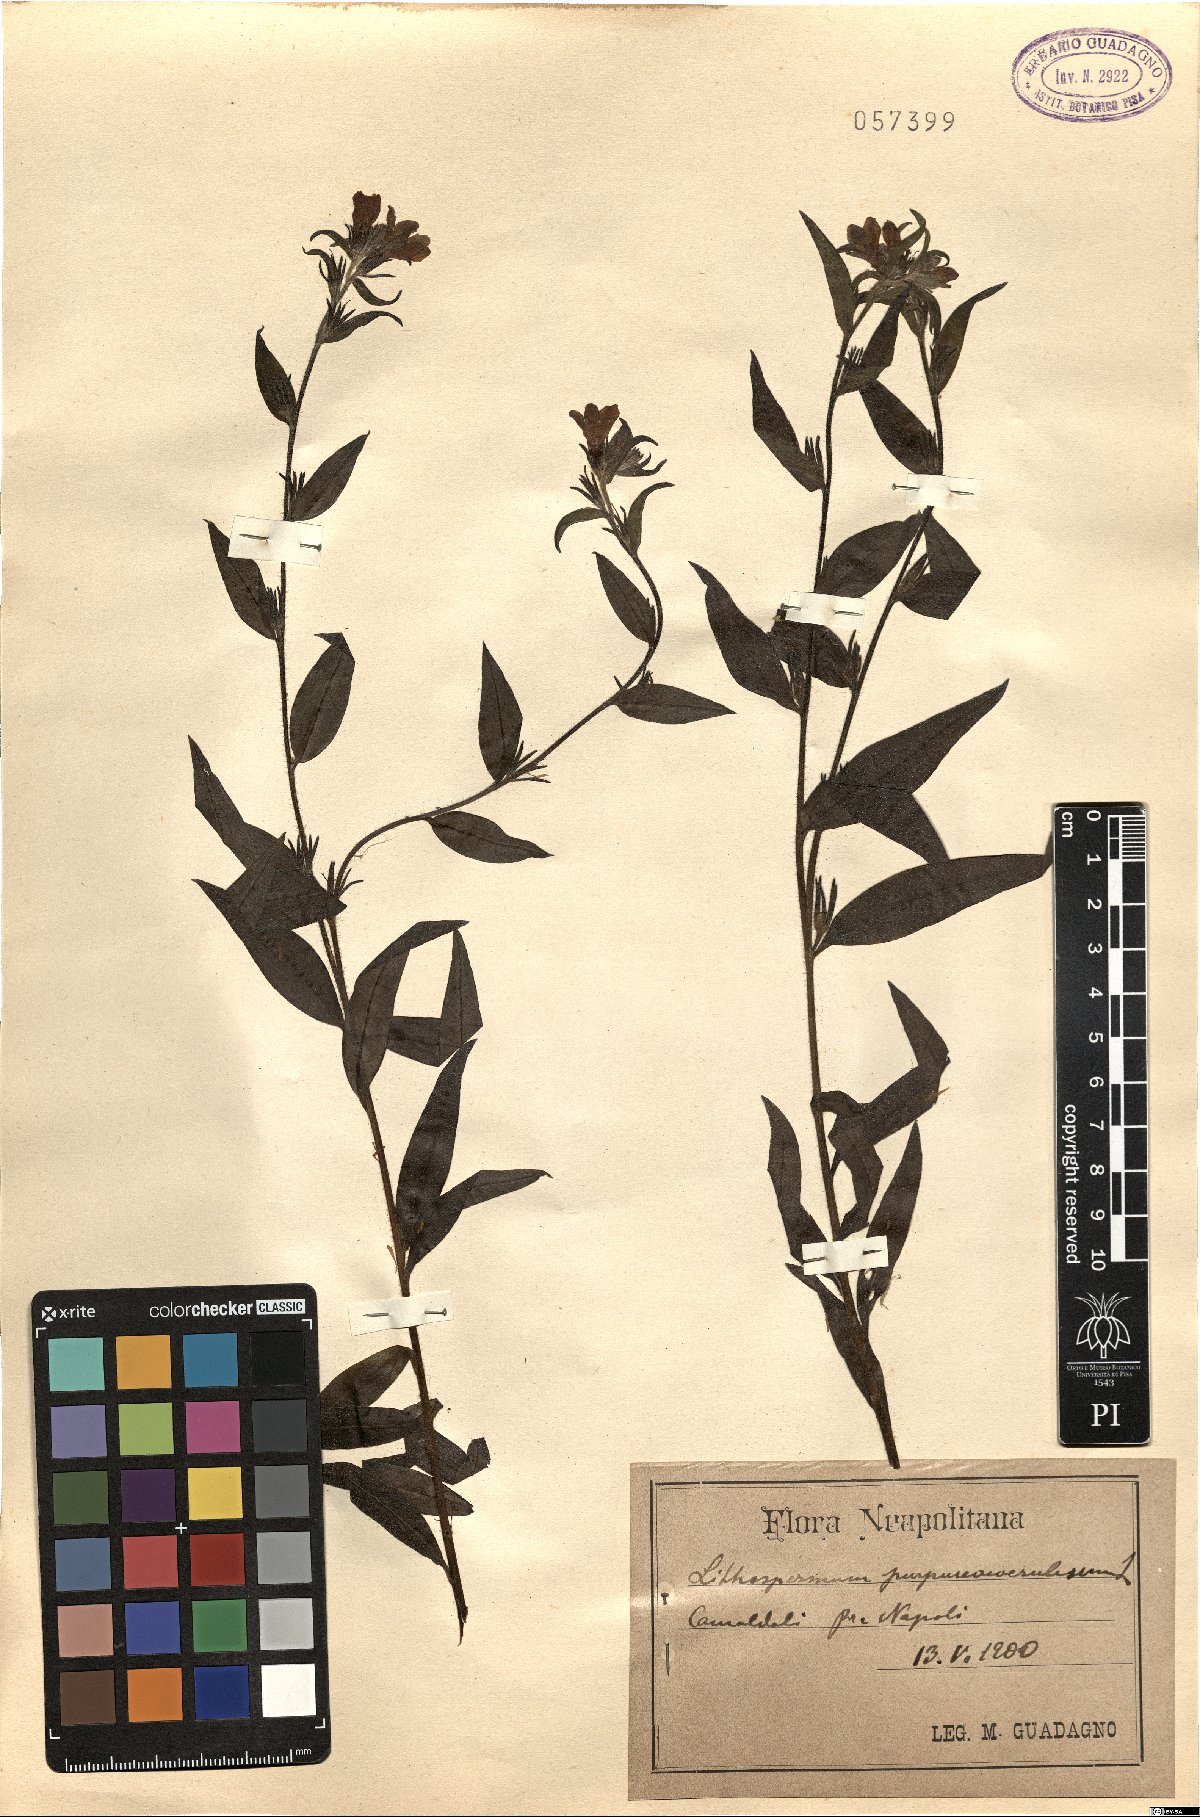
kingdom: Plantae
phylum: Tracheophyta
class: Magnoliopsida
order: Boraginales
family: Boraginaceae
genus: Aegonychon
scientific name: Aegonychon purpurocaeruleum
